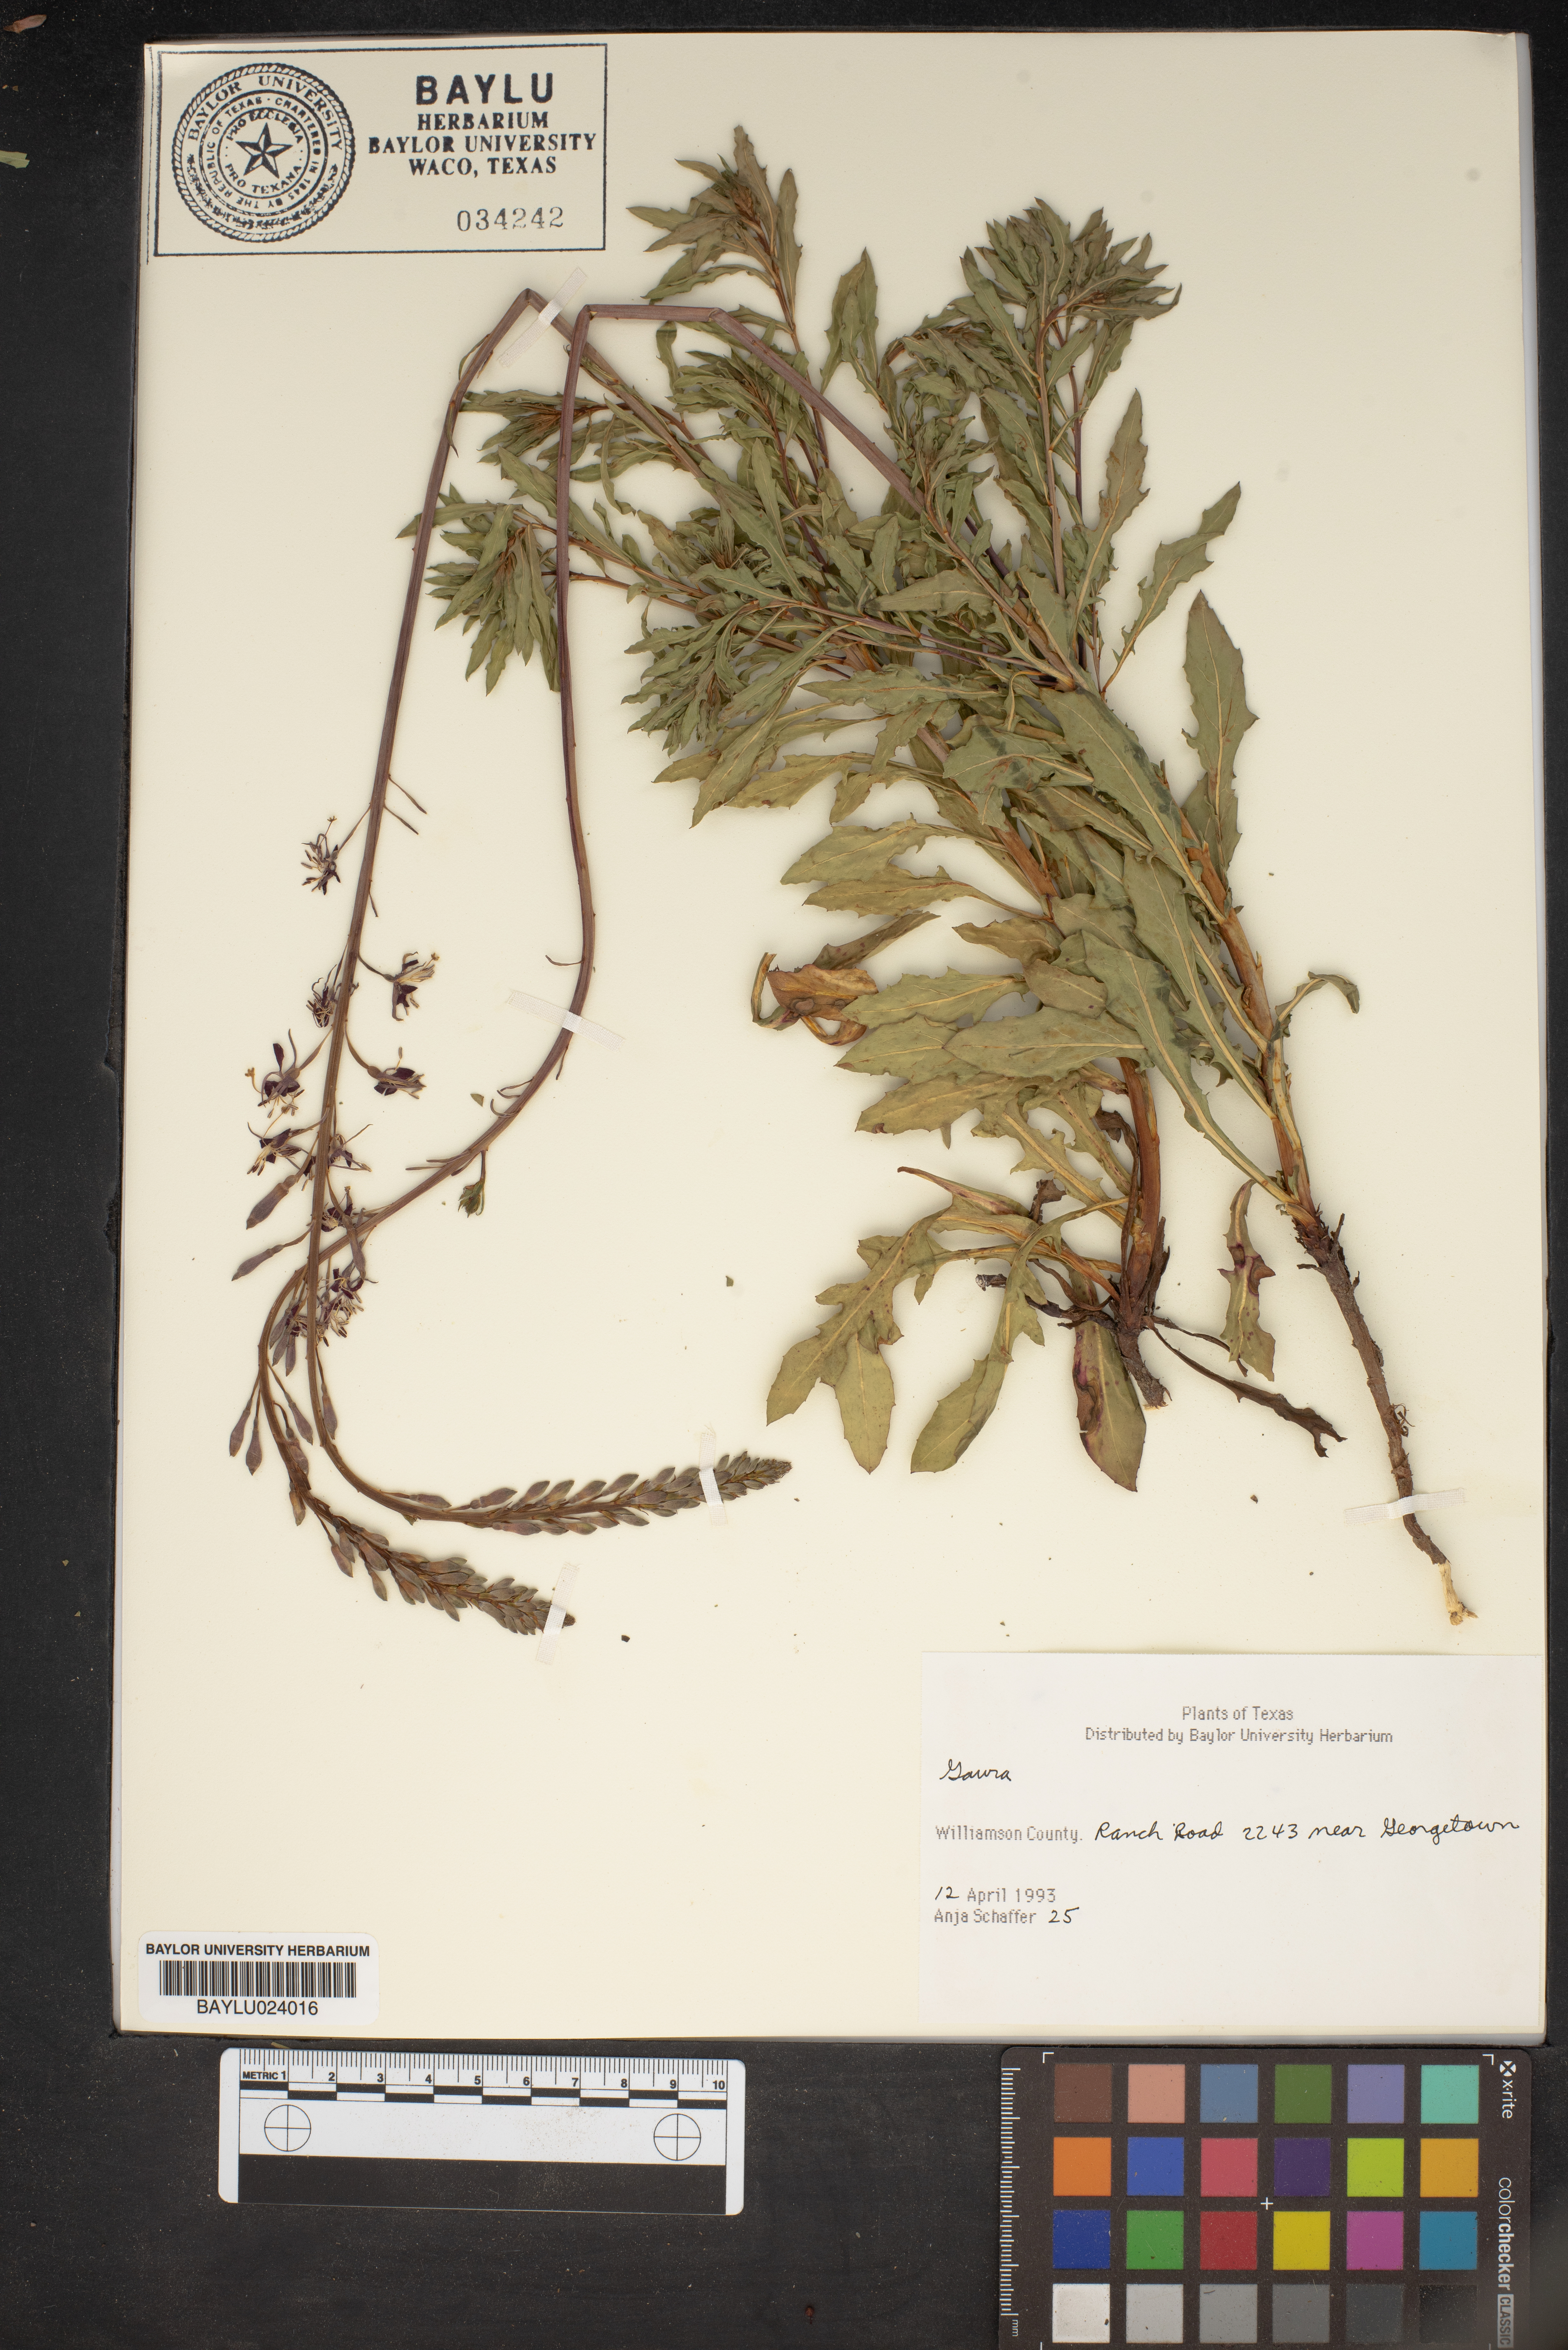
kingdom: Plantae
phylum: Tracheophyta
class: Magnoliopsida
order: Myrtales
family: Onagraceae
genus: Oenothera
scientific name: Oenothera
